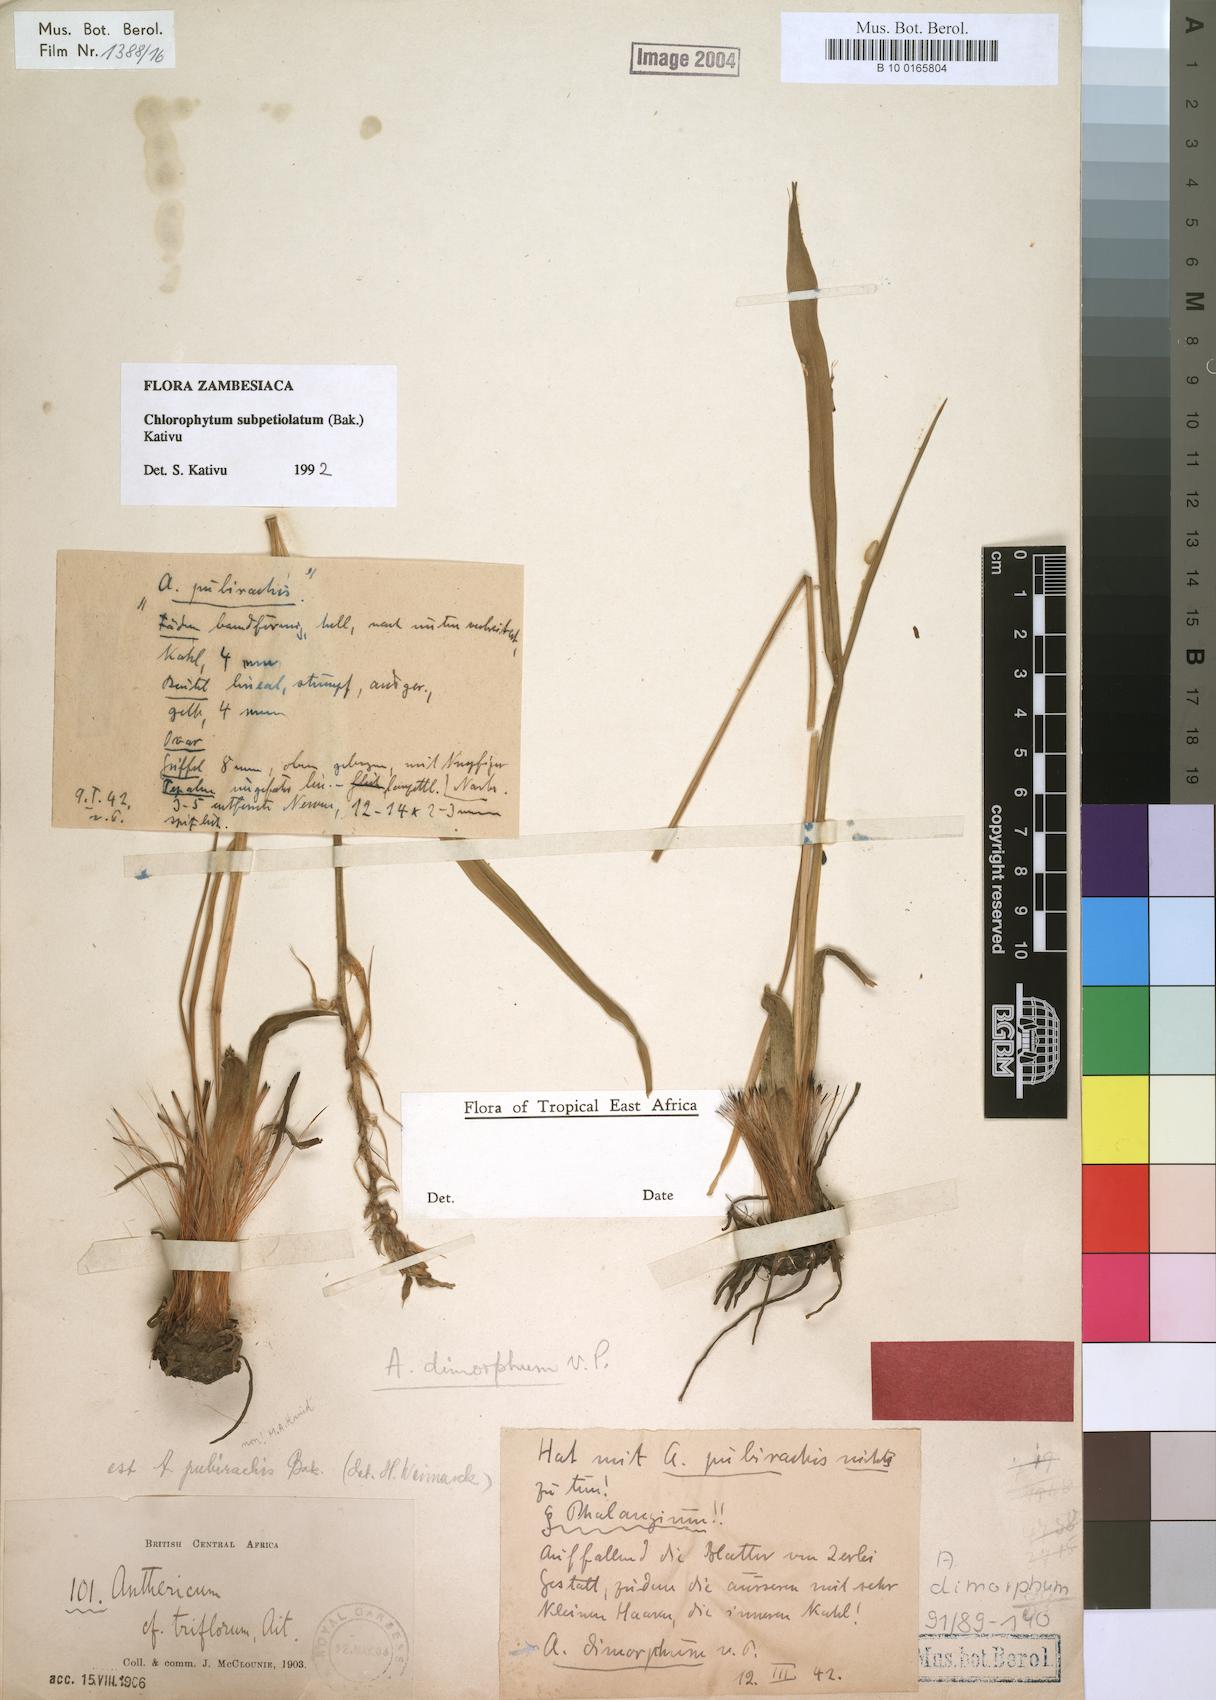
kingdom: Plantae
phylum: Tracheophyta
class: Liliopsida
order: Asparagales
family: Asparagaceae
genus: Chlorophytum
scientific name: Chlorophytum subpetiolatum
